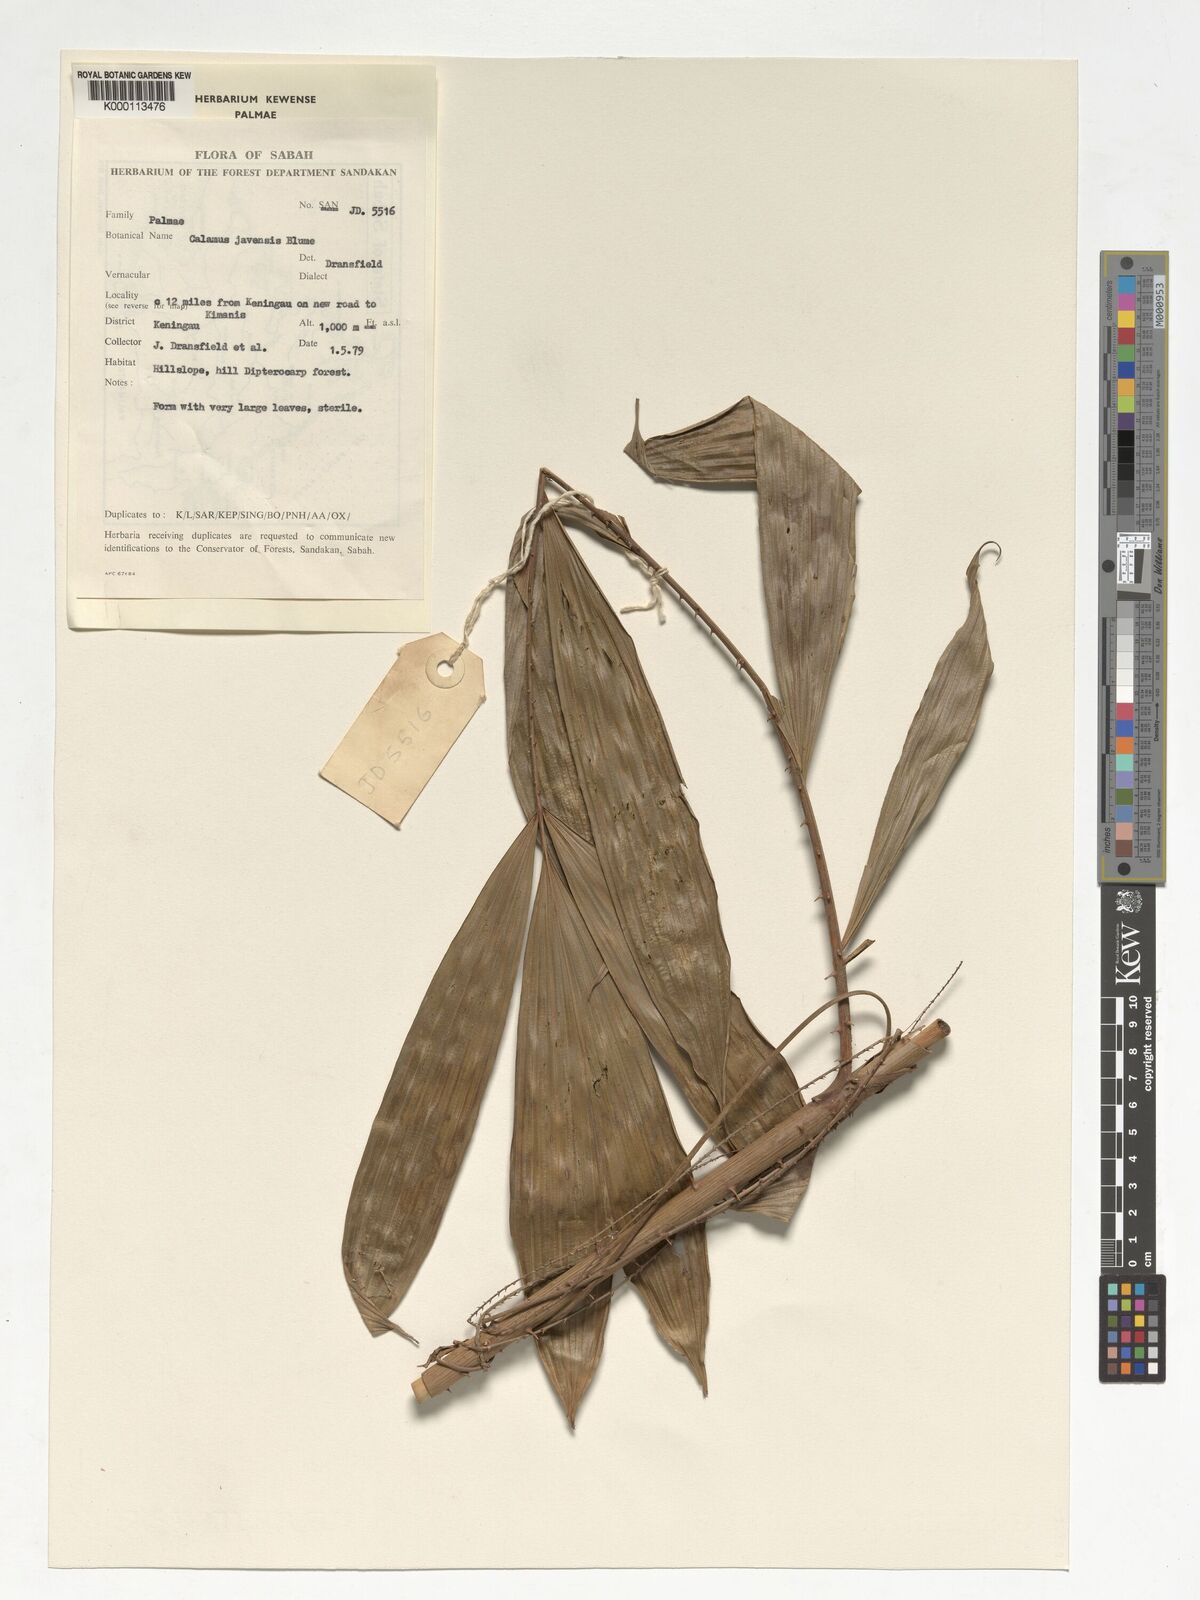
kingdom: Plantae
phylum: Tracheophyta
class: Liliopsida
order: Arecales
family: Arecaceae
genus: Calamus
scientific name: Calamus javensis
